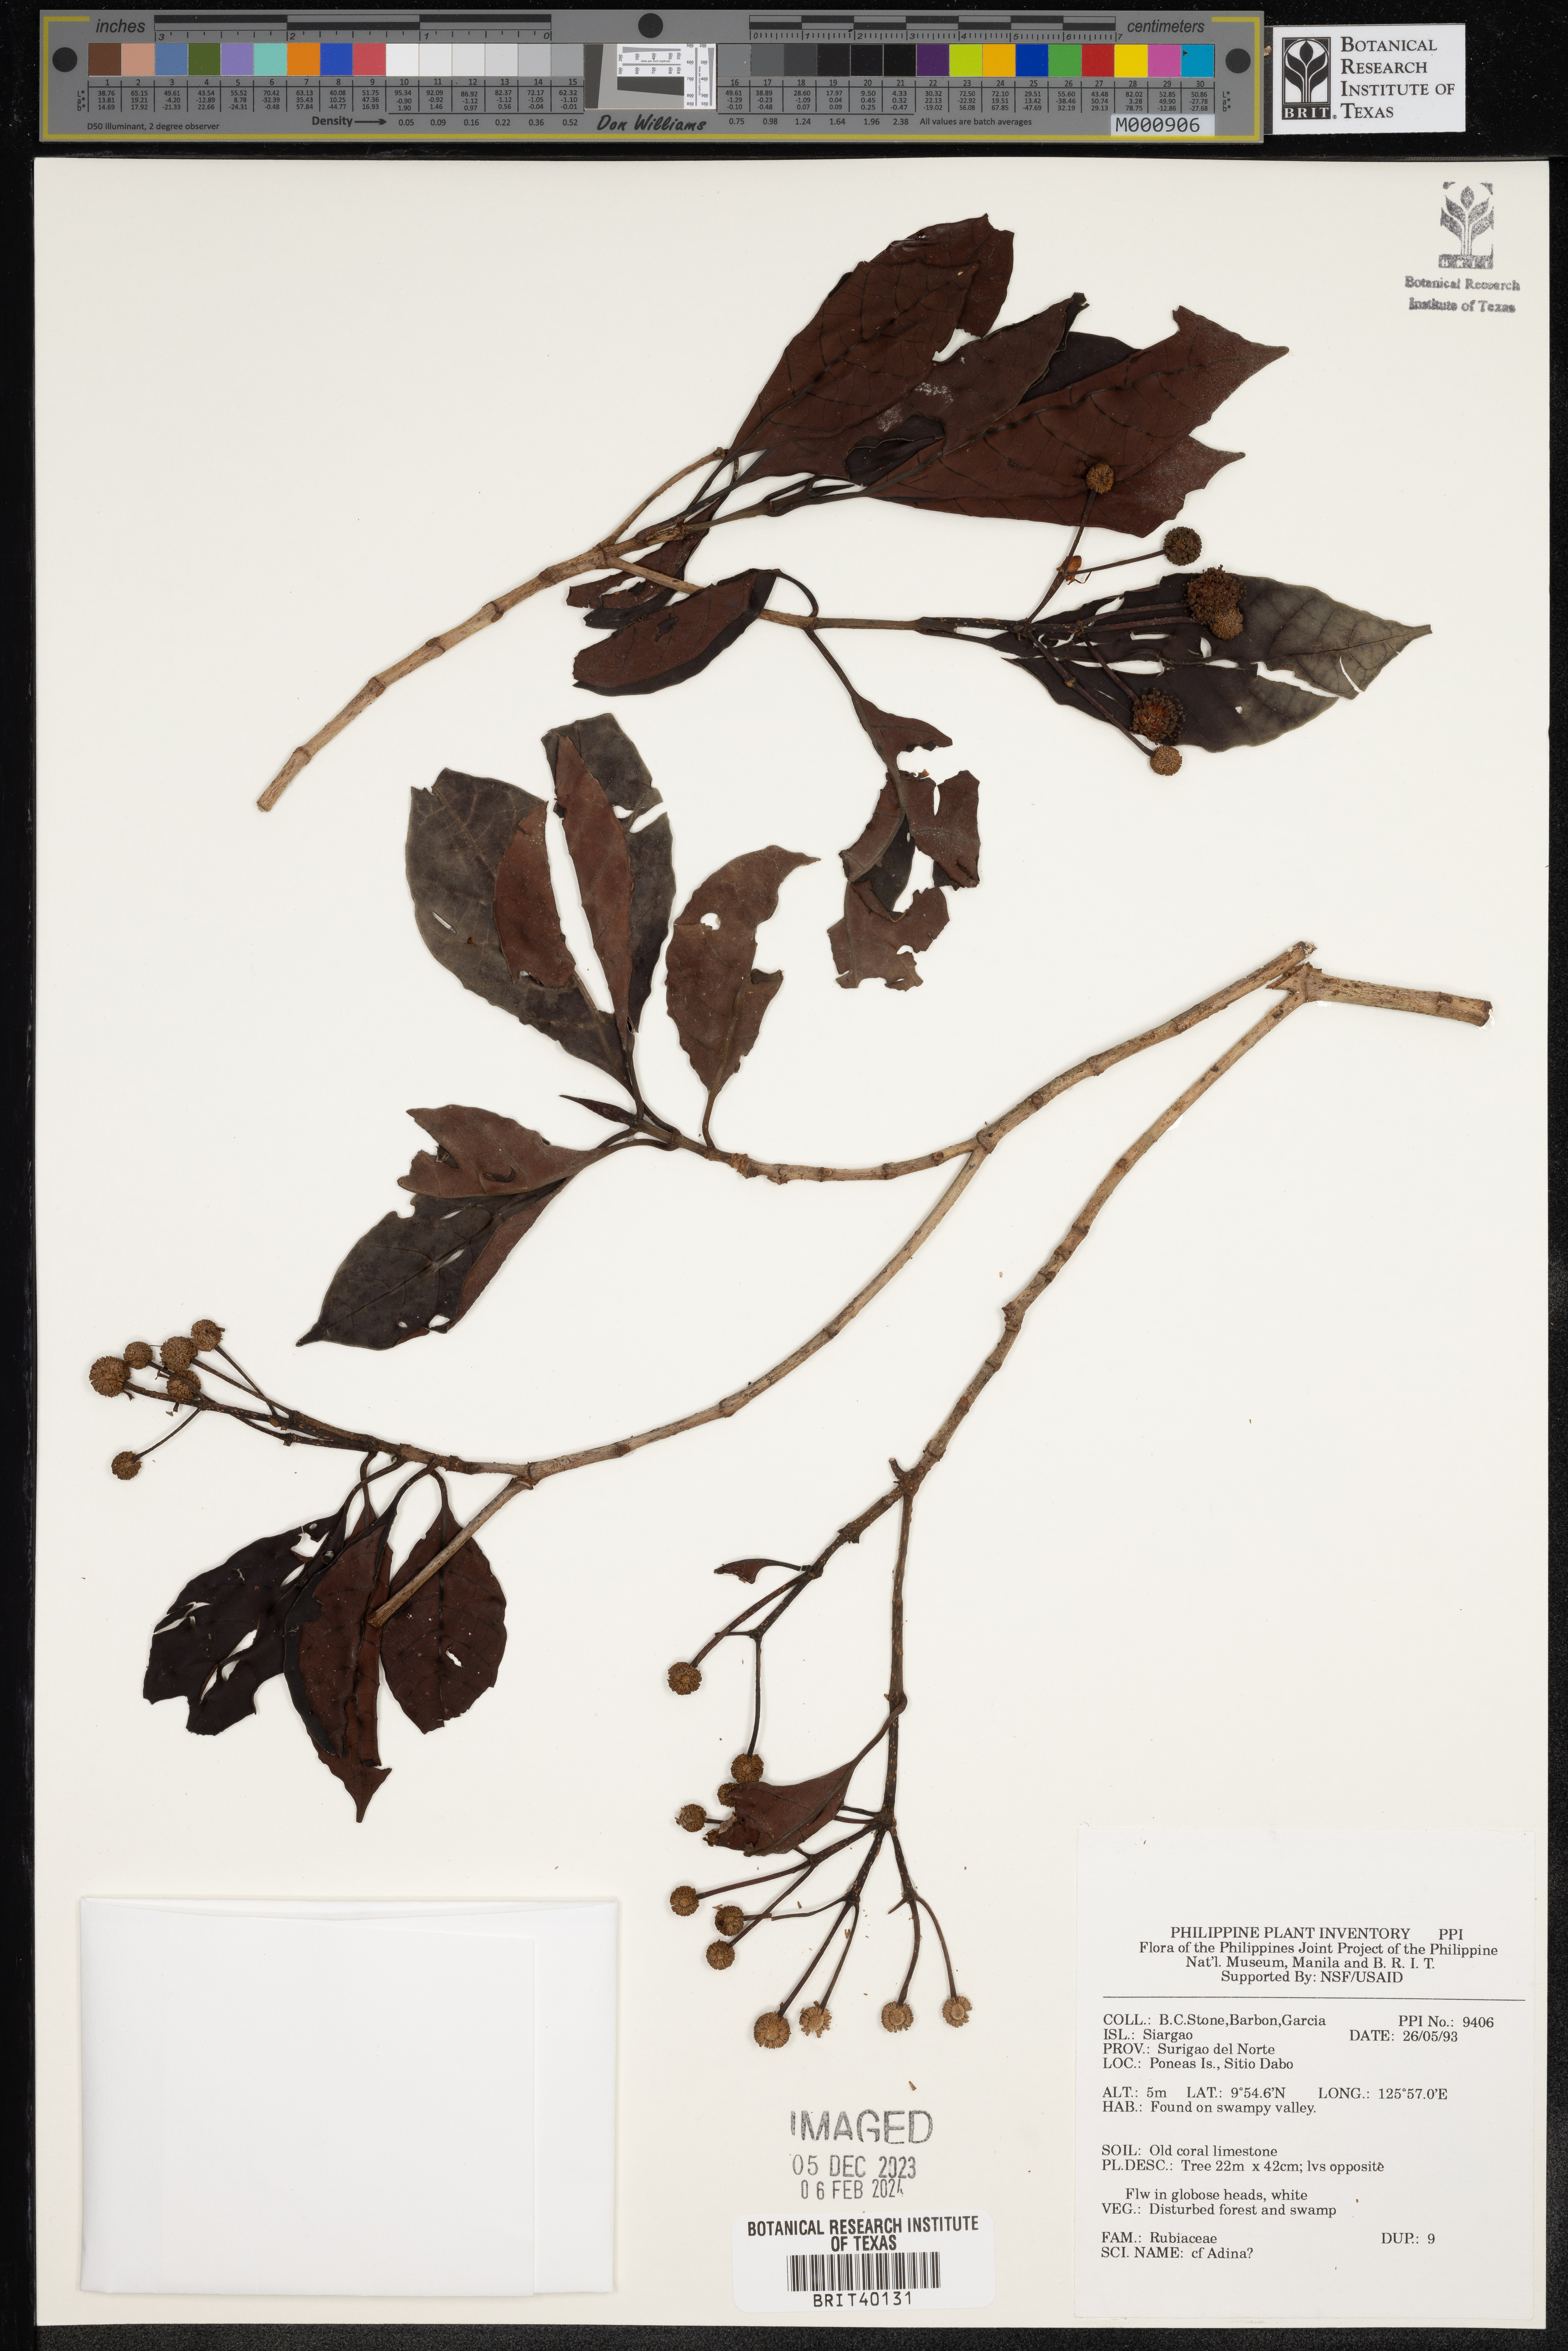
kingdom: Plantae
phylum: Tracheophyta
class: Magnoliopsida
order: Gentianales
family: Rubiaceae
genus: Adina
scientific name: Adina
